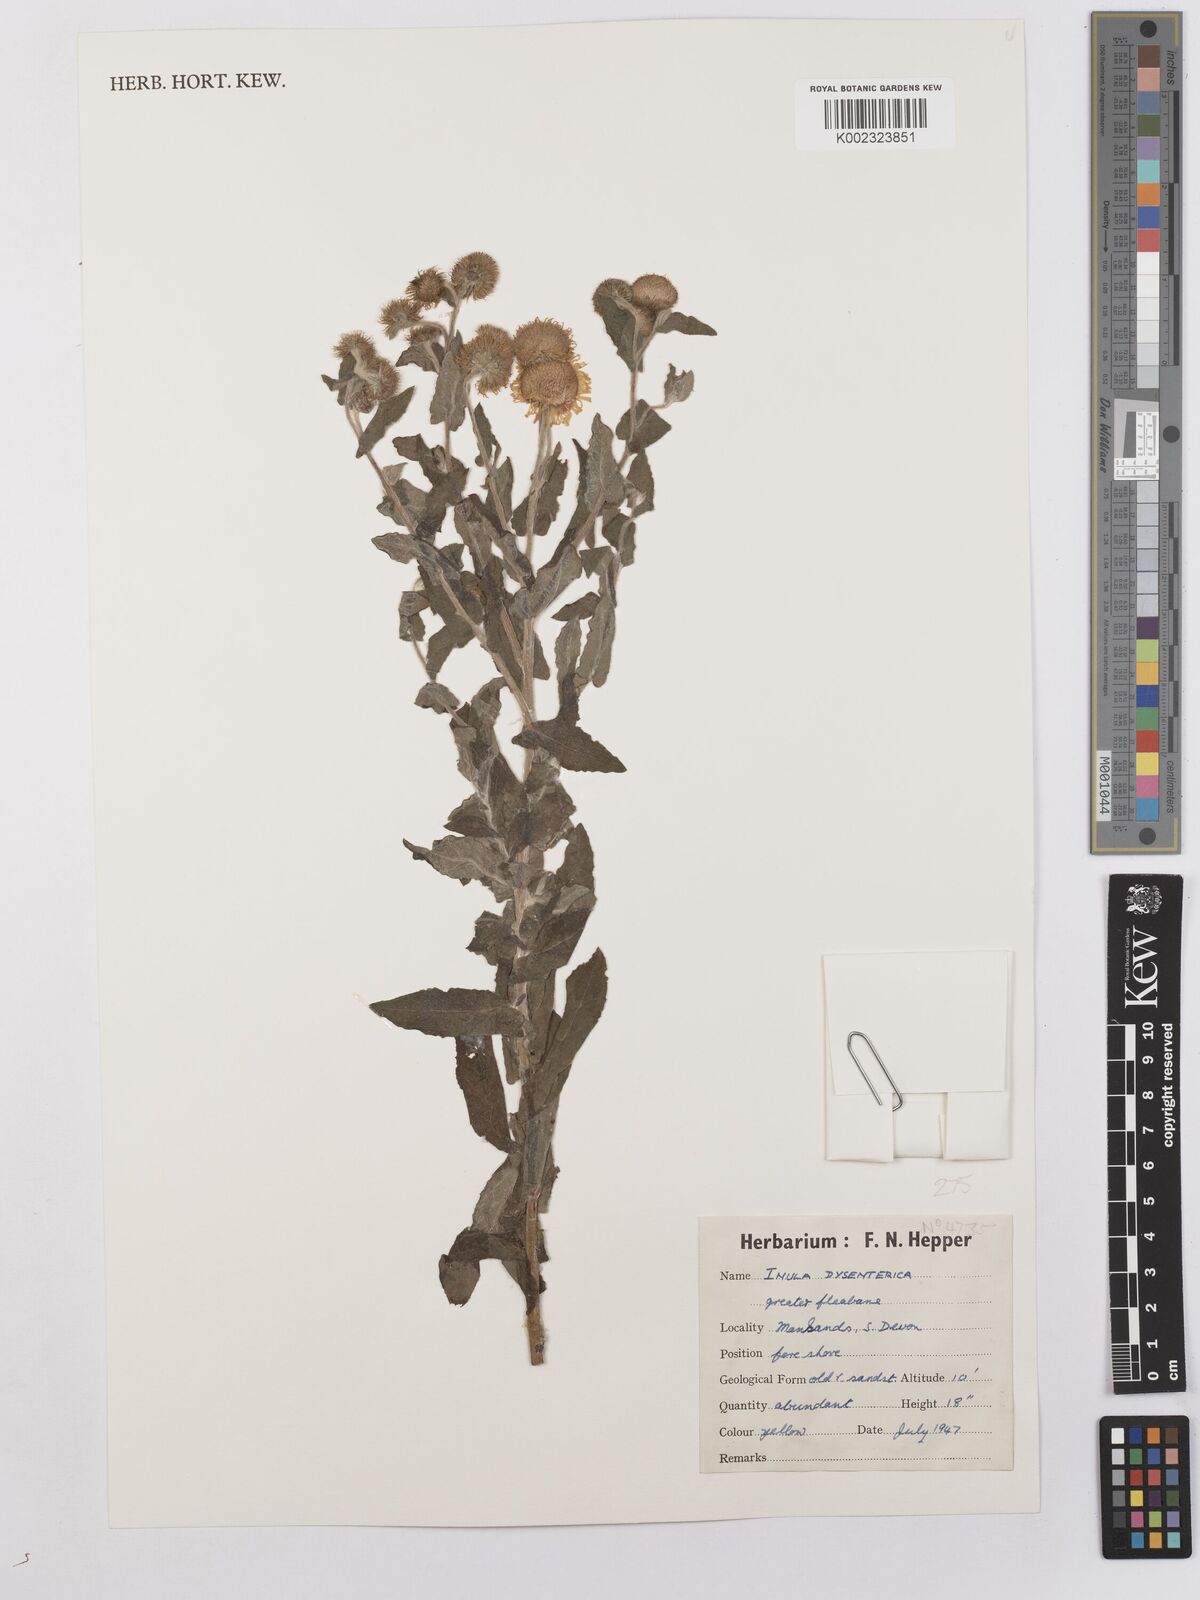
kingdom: Plantae
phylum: Tracheophyta
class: Magnoliopsida
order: Asterales
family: Asteraceae
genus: Pulicaria
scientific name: Pulicaria dysenterica
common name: Common fleabane
